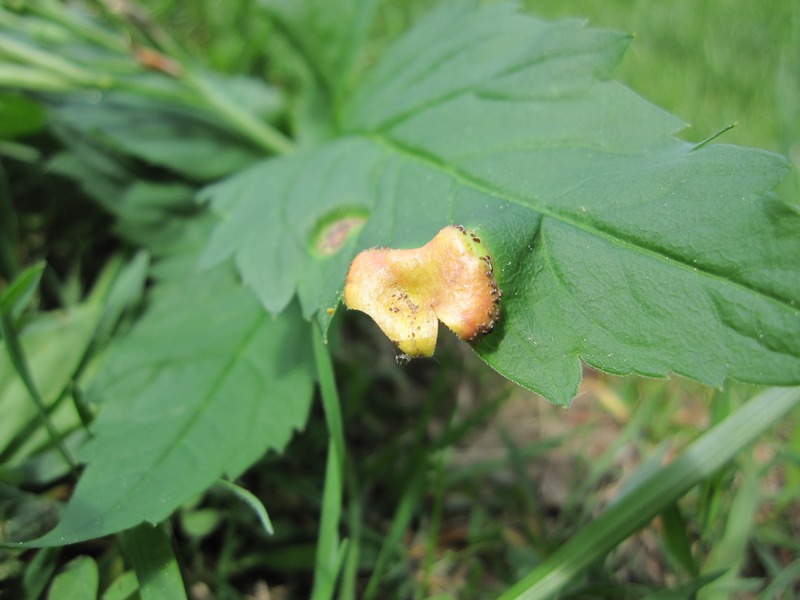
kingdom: Fungi
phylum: Basidiomycota
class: Pucciniomycetes
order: Pucciniales
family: Pucciniaceae
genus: Puccinia
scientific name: Puccinia dentariae
